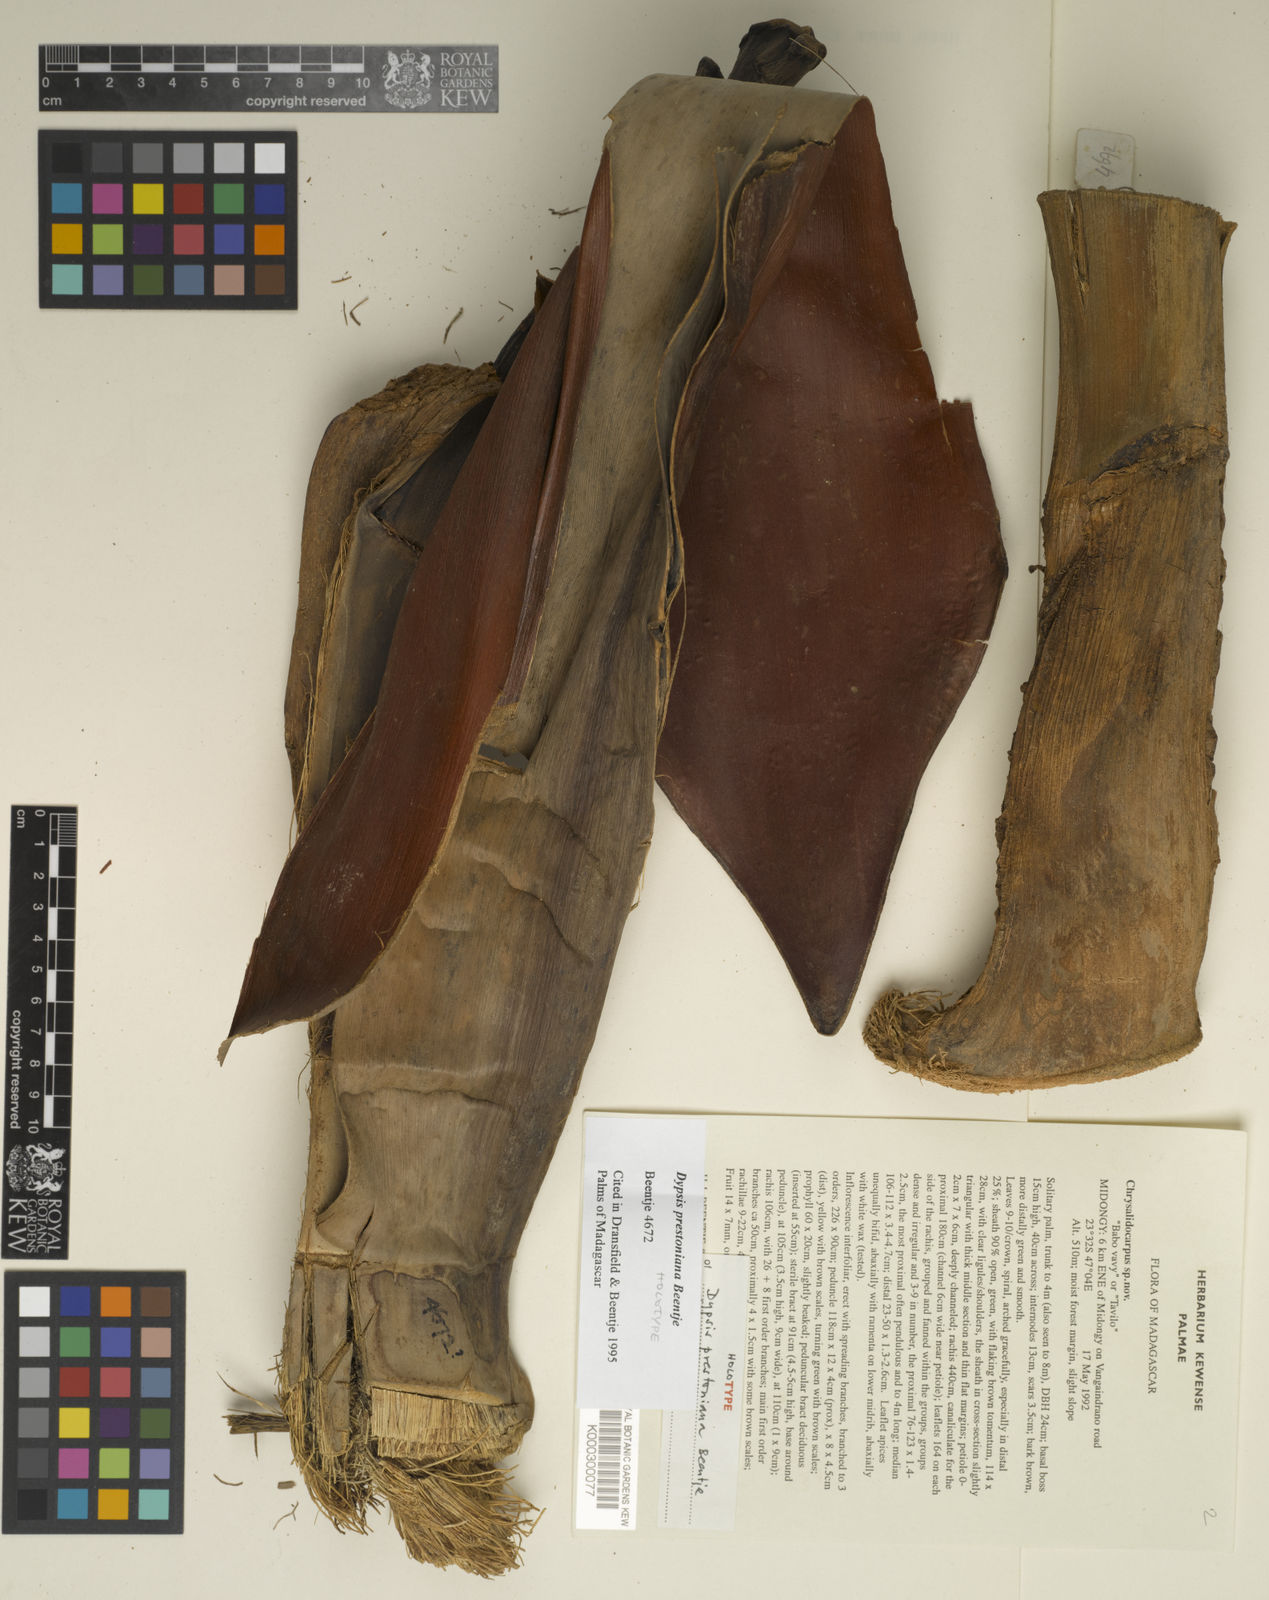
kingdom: Plantae
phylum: Tracheophyta
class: Liliopsida
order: Arecales
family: Arecaceae
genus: Dypsis
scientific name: Dypsis prestoniana
